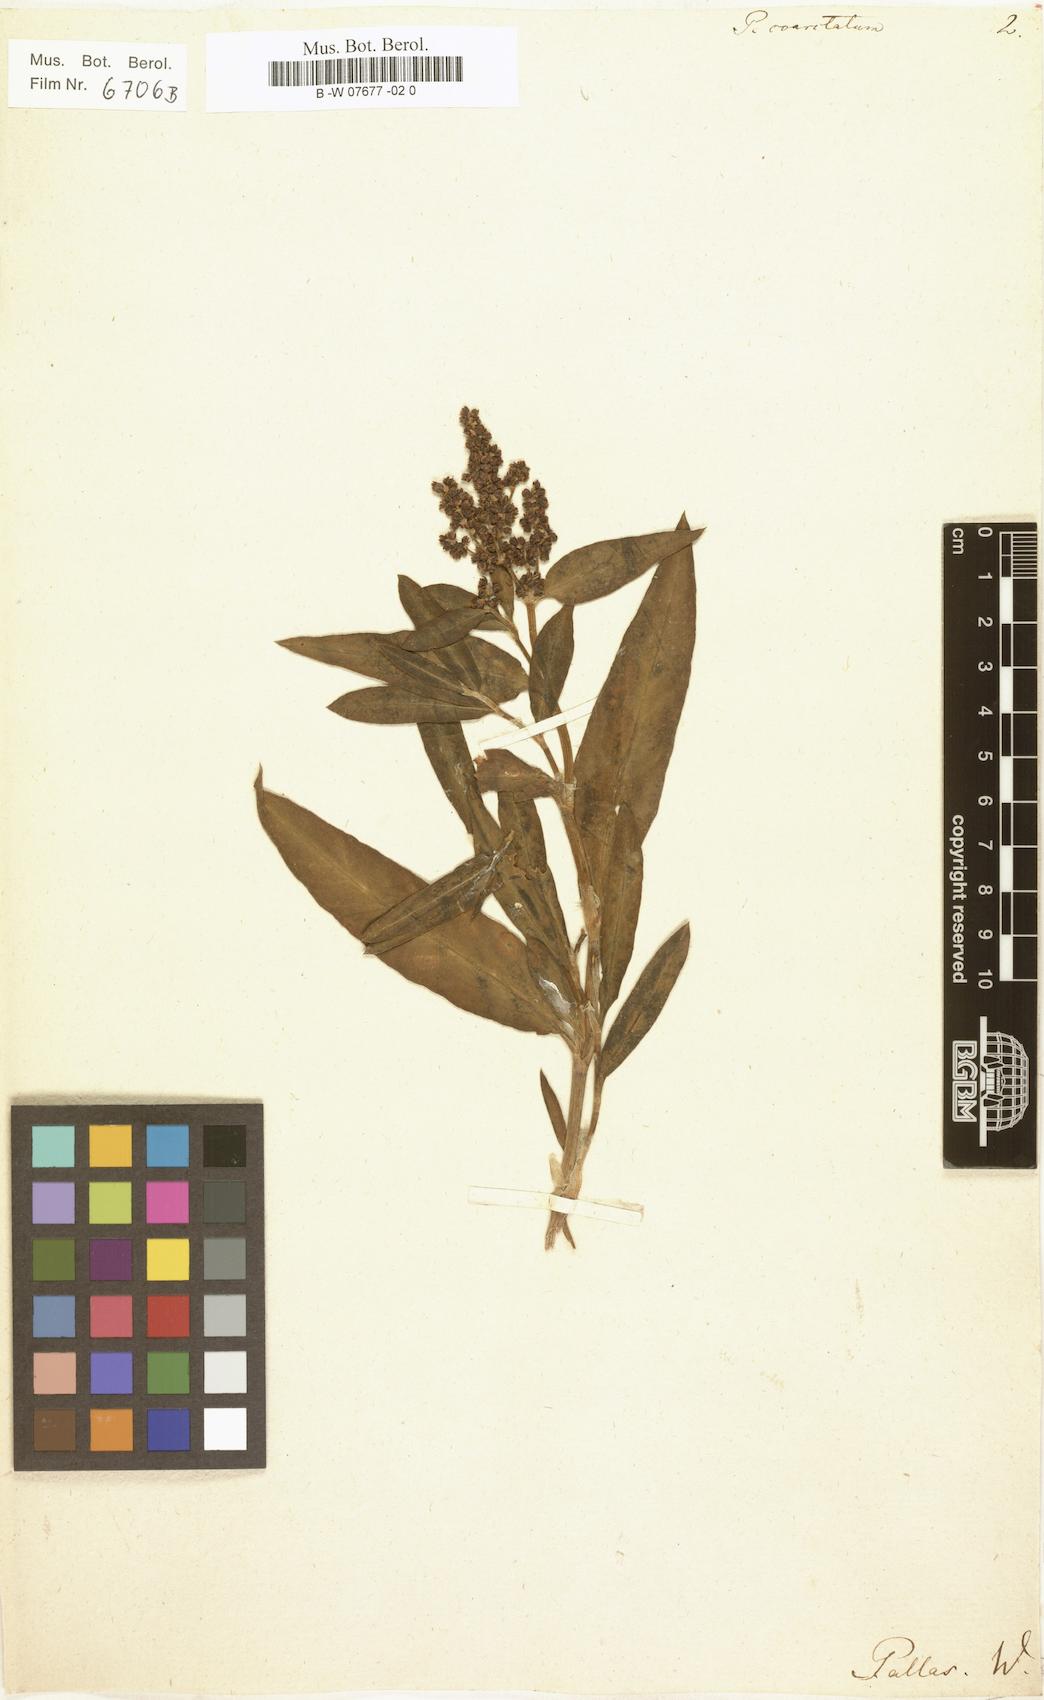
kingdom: Plantae
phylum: Tracheophyta
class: Magnoliopsida
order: Caryophyllales
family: Polygonaceae
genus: Polygonum
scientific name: Polygonum coarctatum
